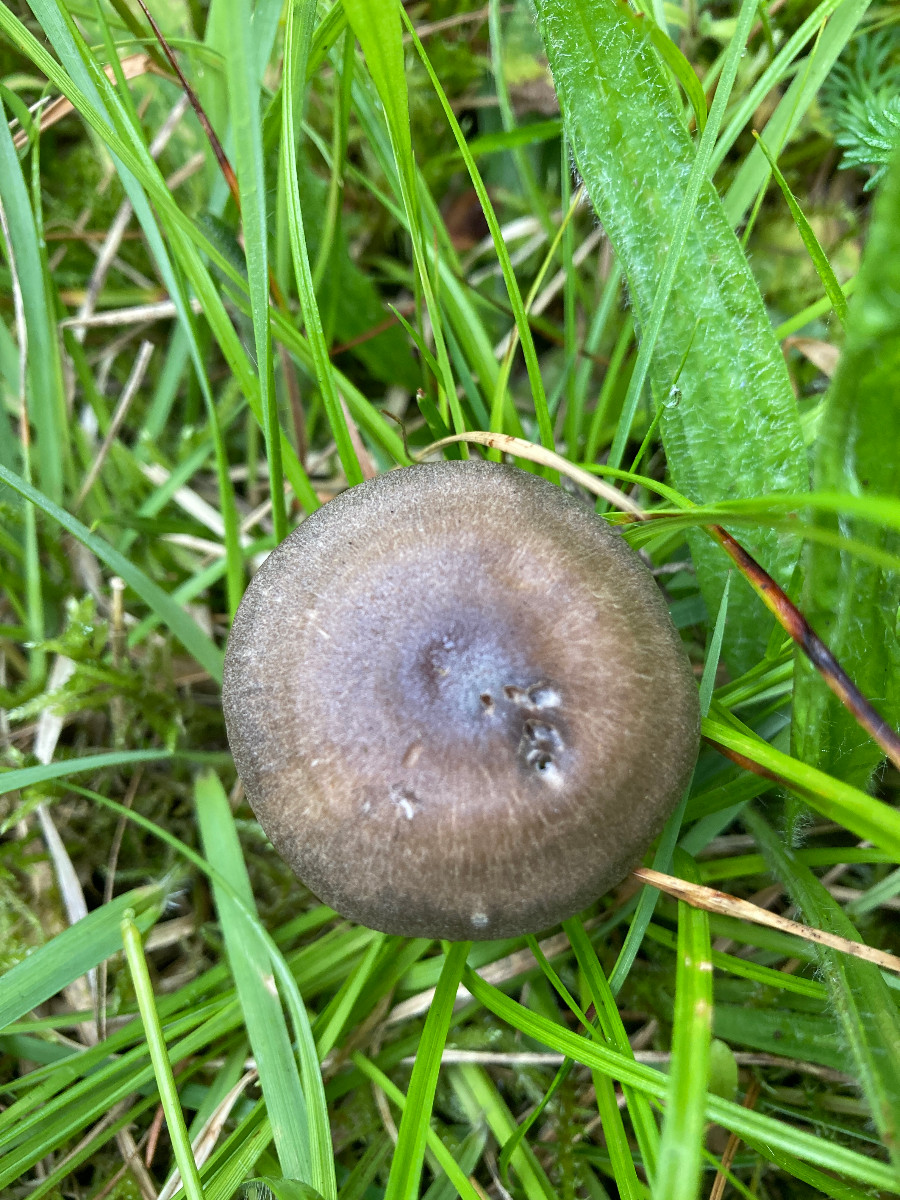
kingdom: Fungi
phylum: Basidiomycota
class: Agaricomycetes
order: Agaricales
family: Hygrophoraceae
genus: Neohygrocybe
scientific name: Neohygrocybe nitrata
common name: stinkende vokshat
